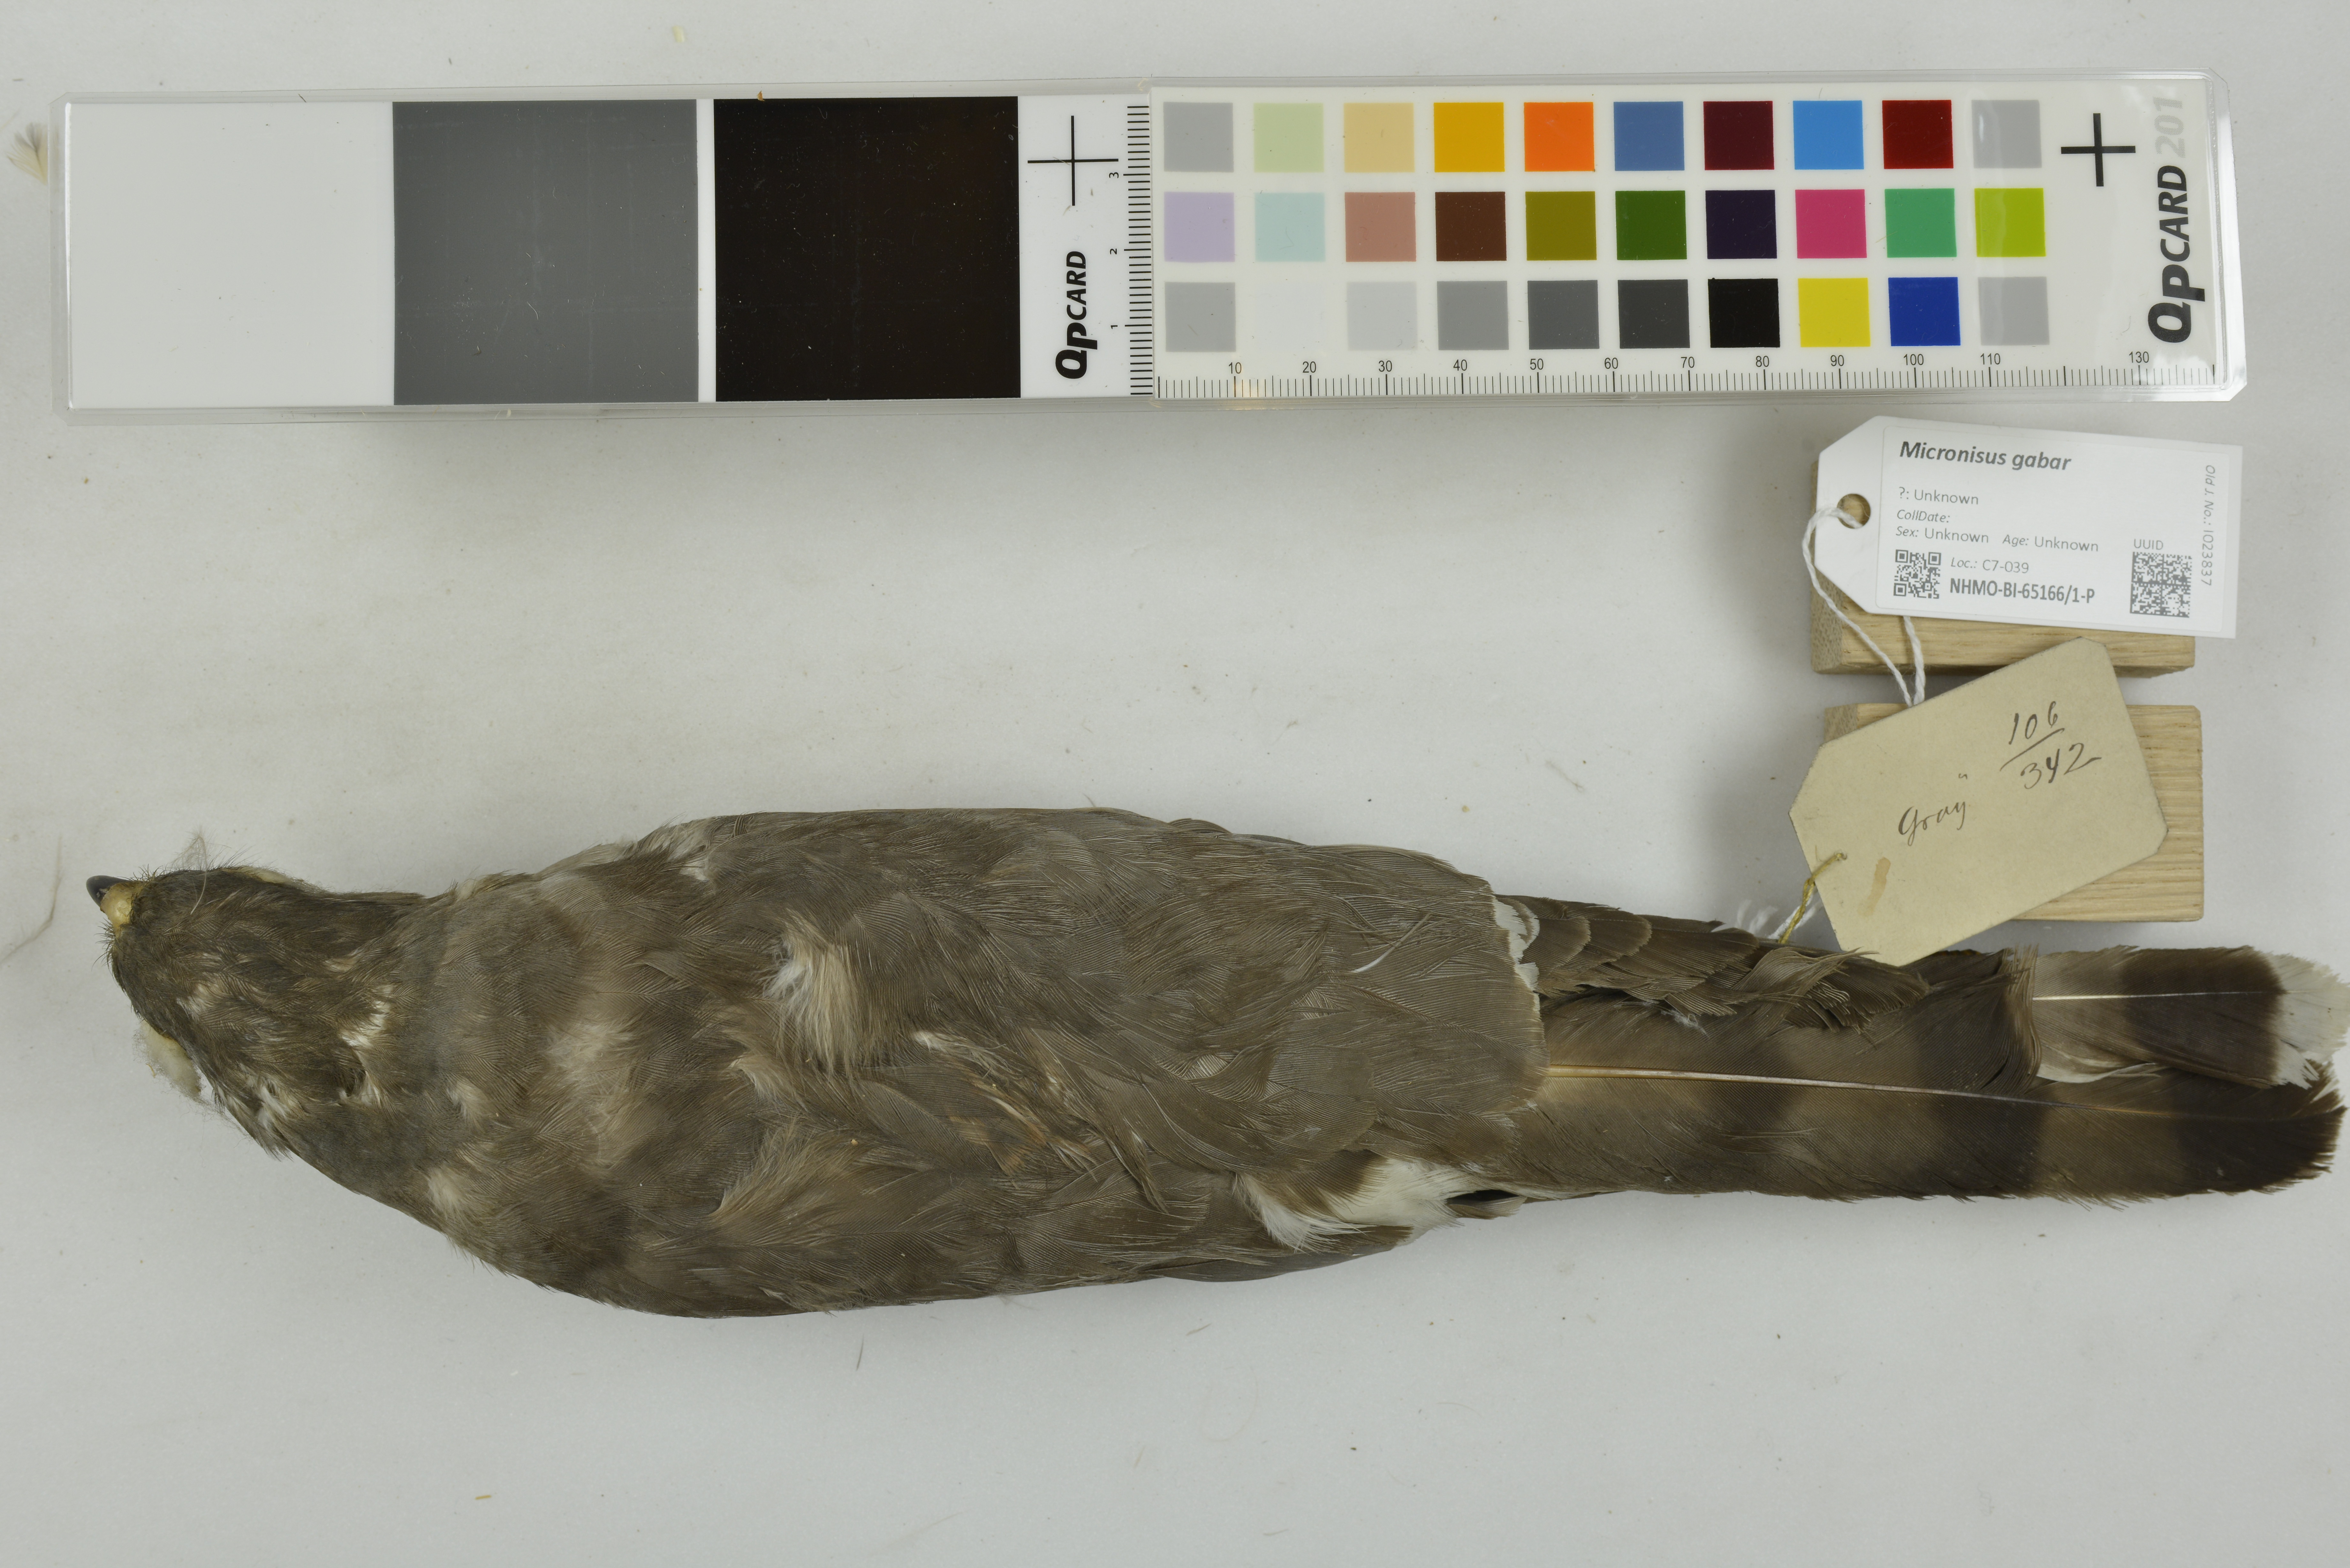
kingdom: Animalia
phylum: Chordata
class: Aves
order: Accipitriformes
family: Accipitridae
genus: Micronisus
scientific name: Micronisus gabar
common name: Gabar goshawk
